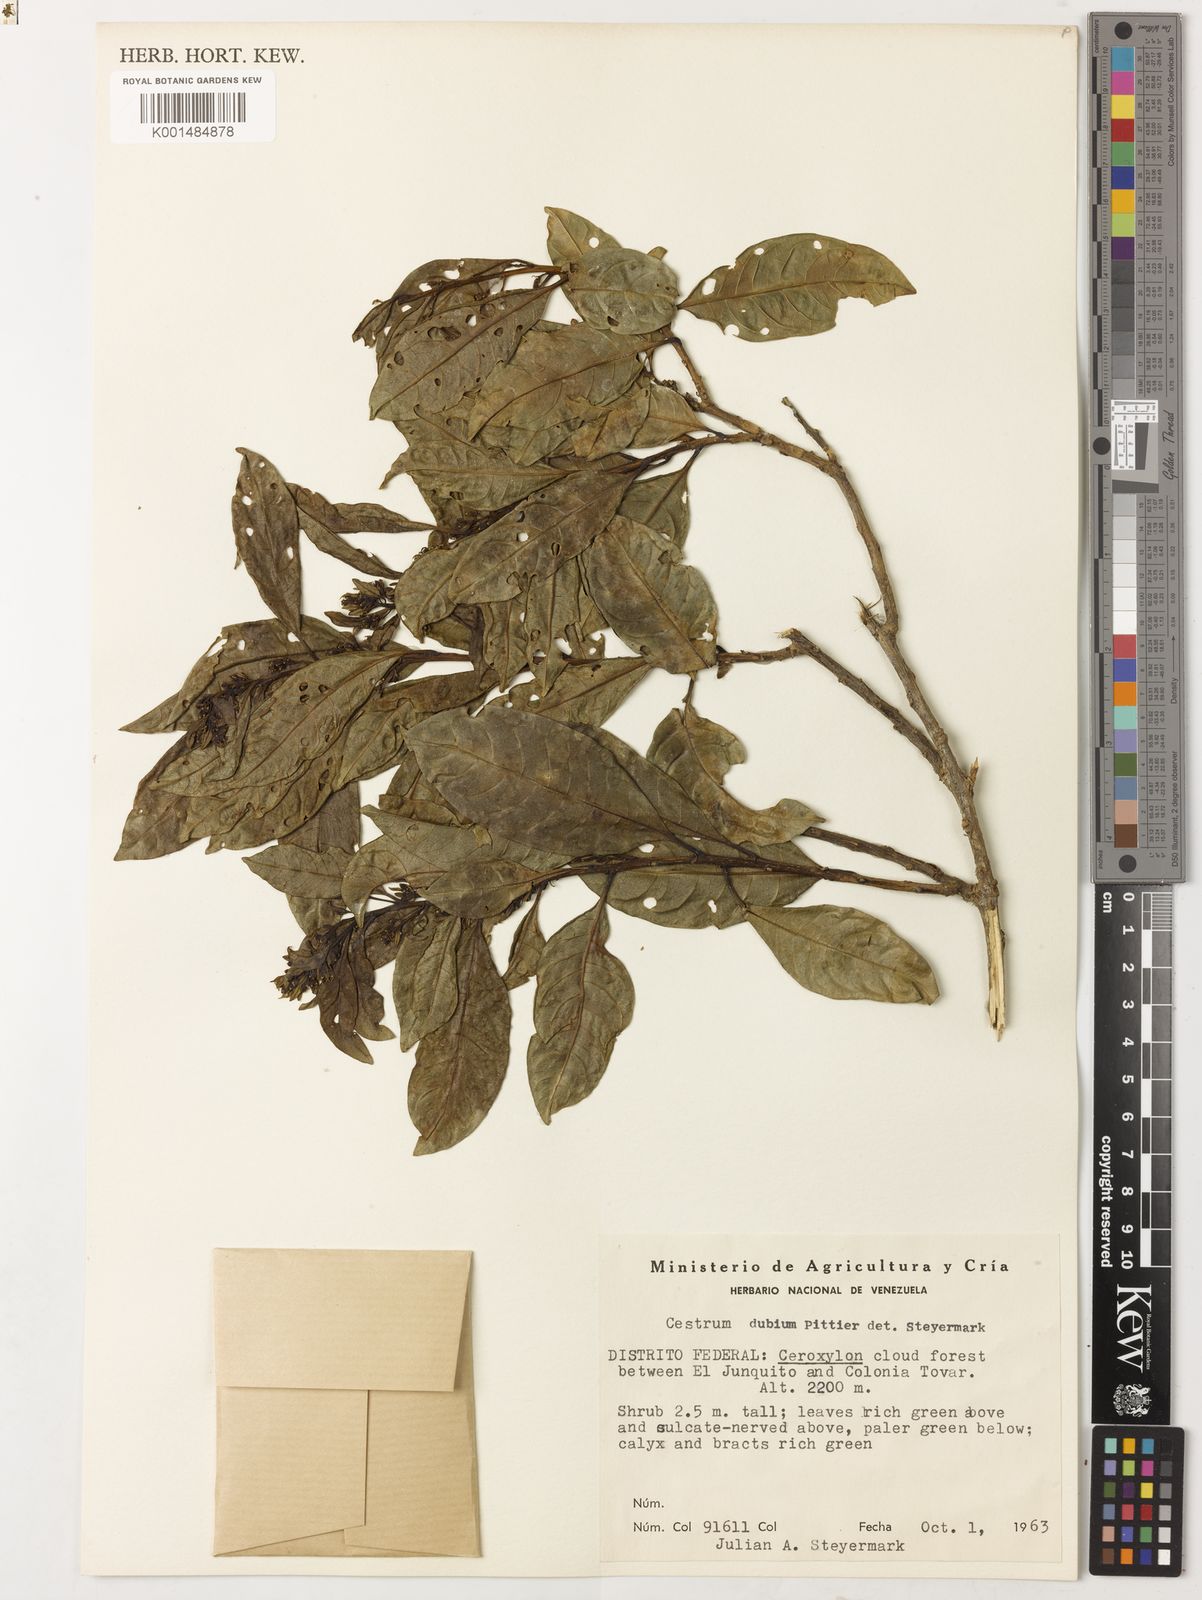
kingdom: Plantae
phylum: Tracheophyta
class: Magnoliopsida
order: Solanales
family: Solanaceae
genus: Cestrum
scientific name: Cestrum lindenii
